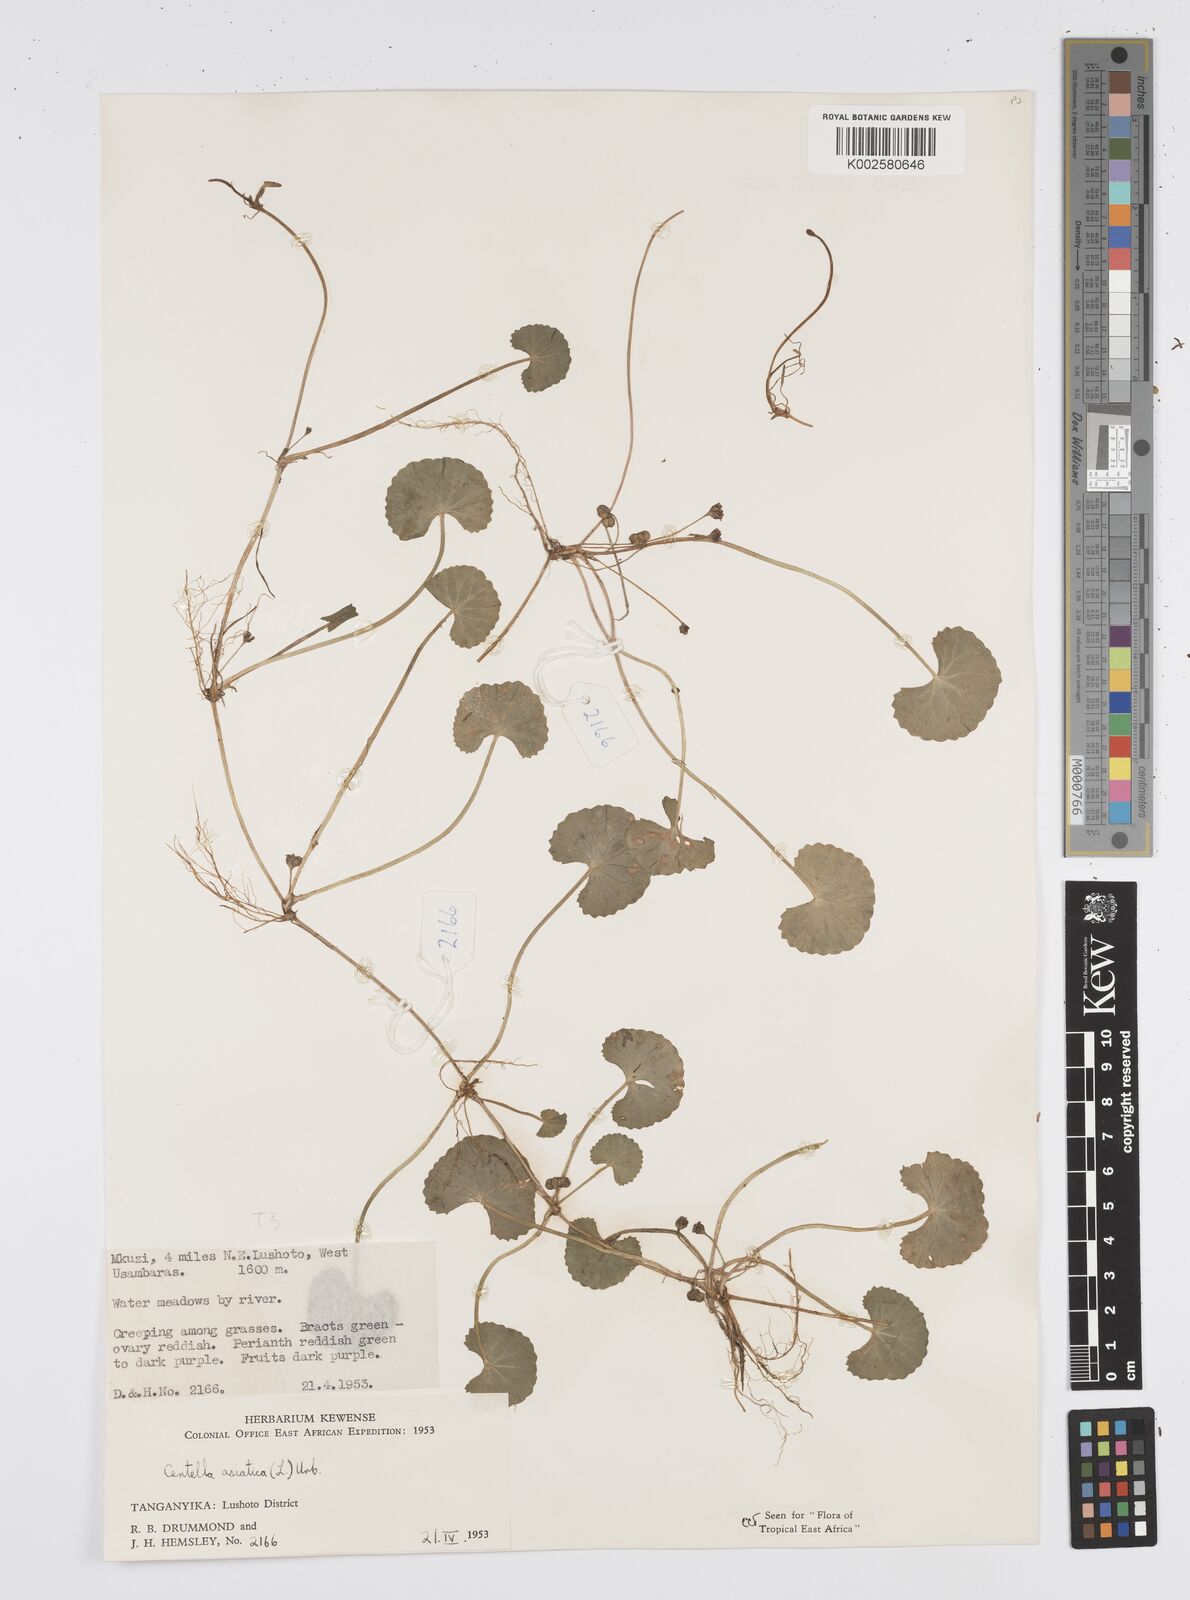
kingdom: Plantae
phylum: Tracheophyta
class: Magnoliopsida
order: Apiales
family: Apiaceae
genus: Centella
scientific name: Centella asiatica
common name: Spadeleaf
